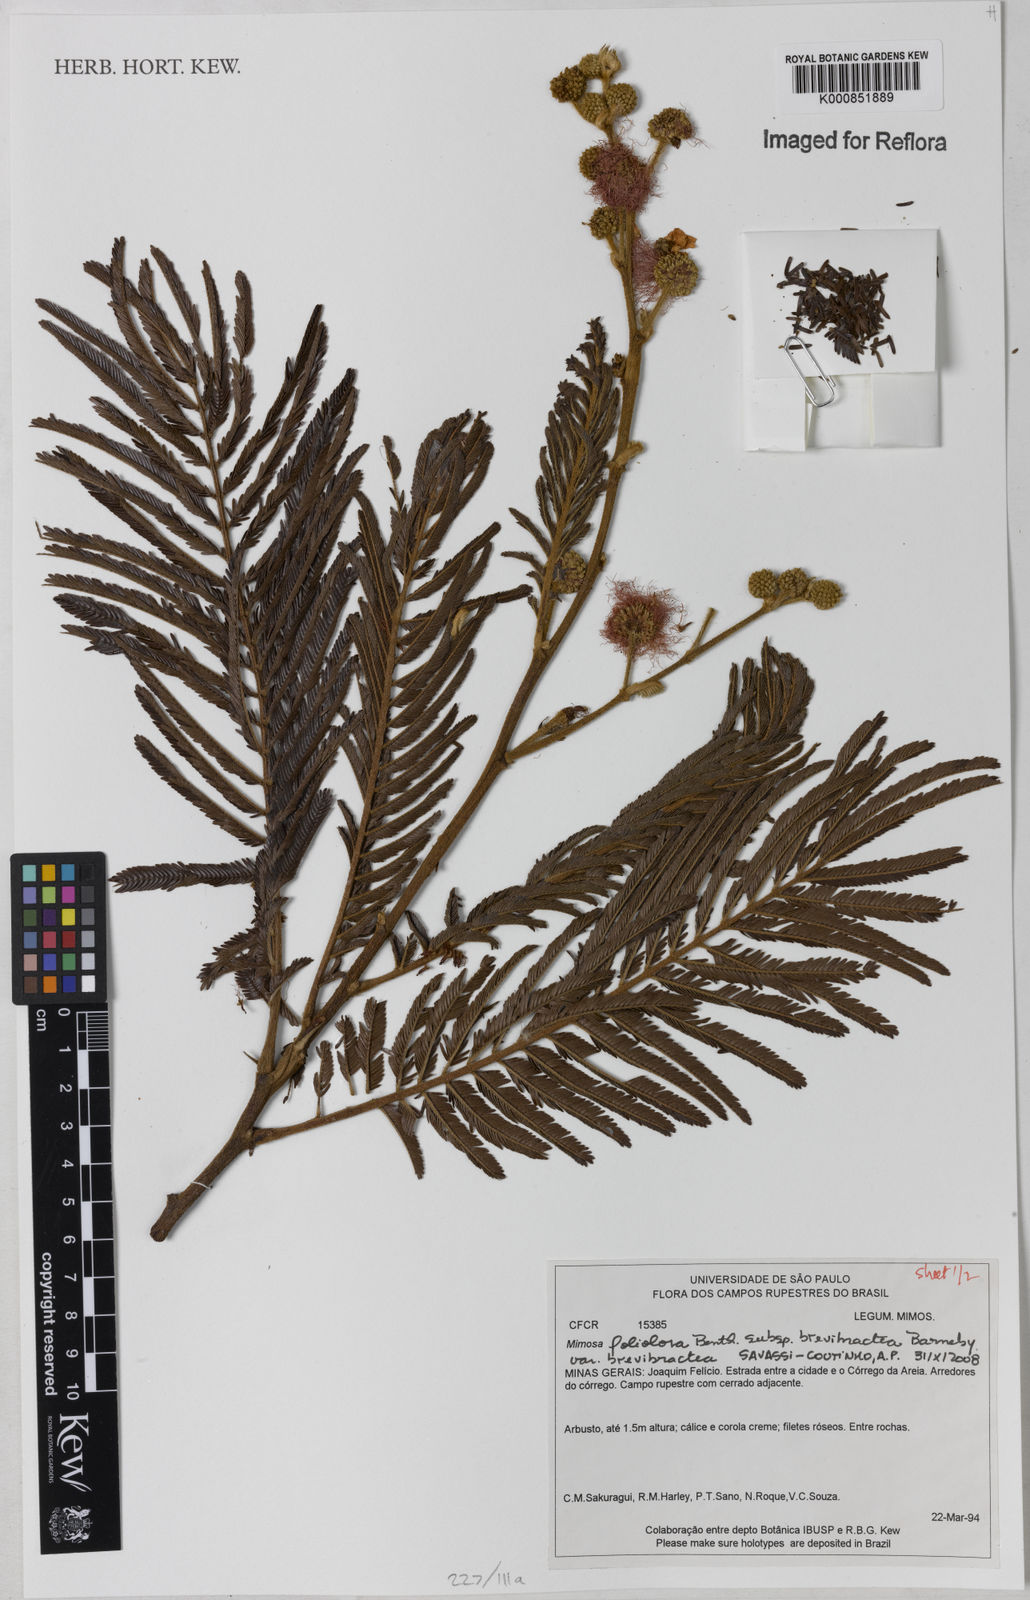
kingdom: Plantae
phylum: Tracheophyta
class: Magnoliopsida
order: Fabales
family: Fabaceae
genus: Mimosa
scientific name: Mimosa foliolosa
